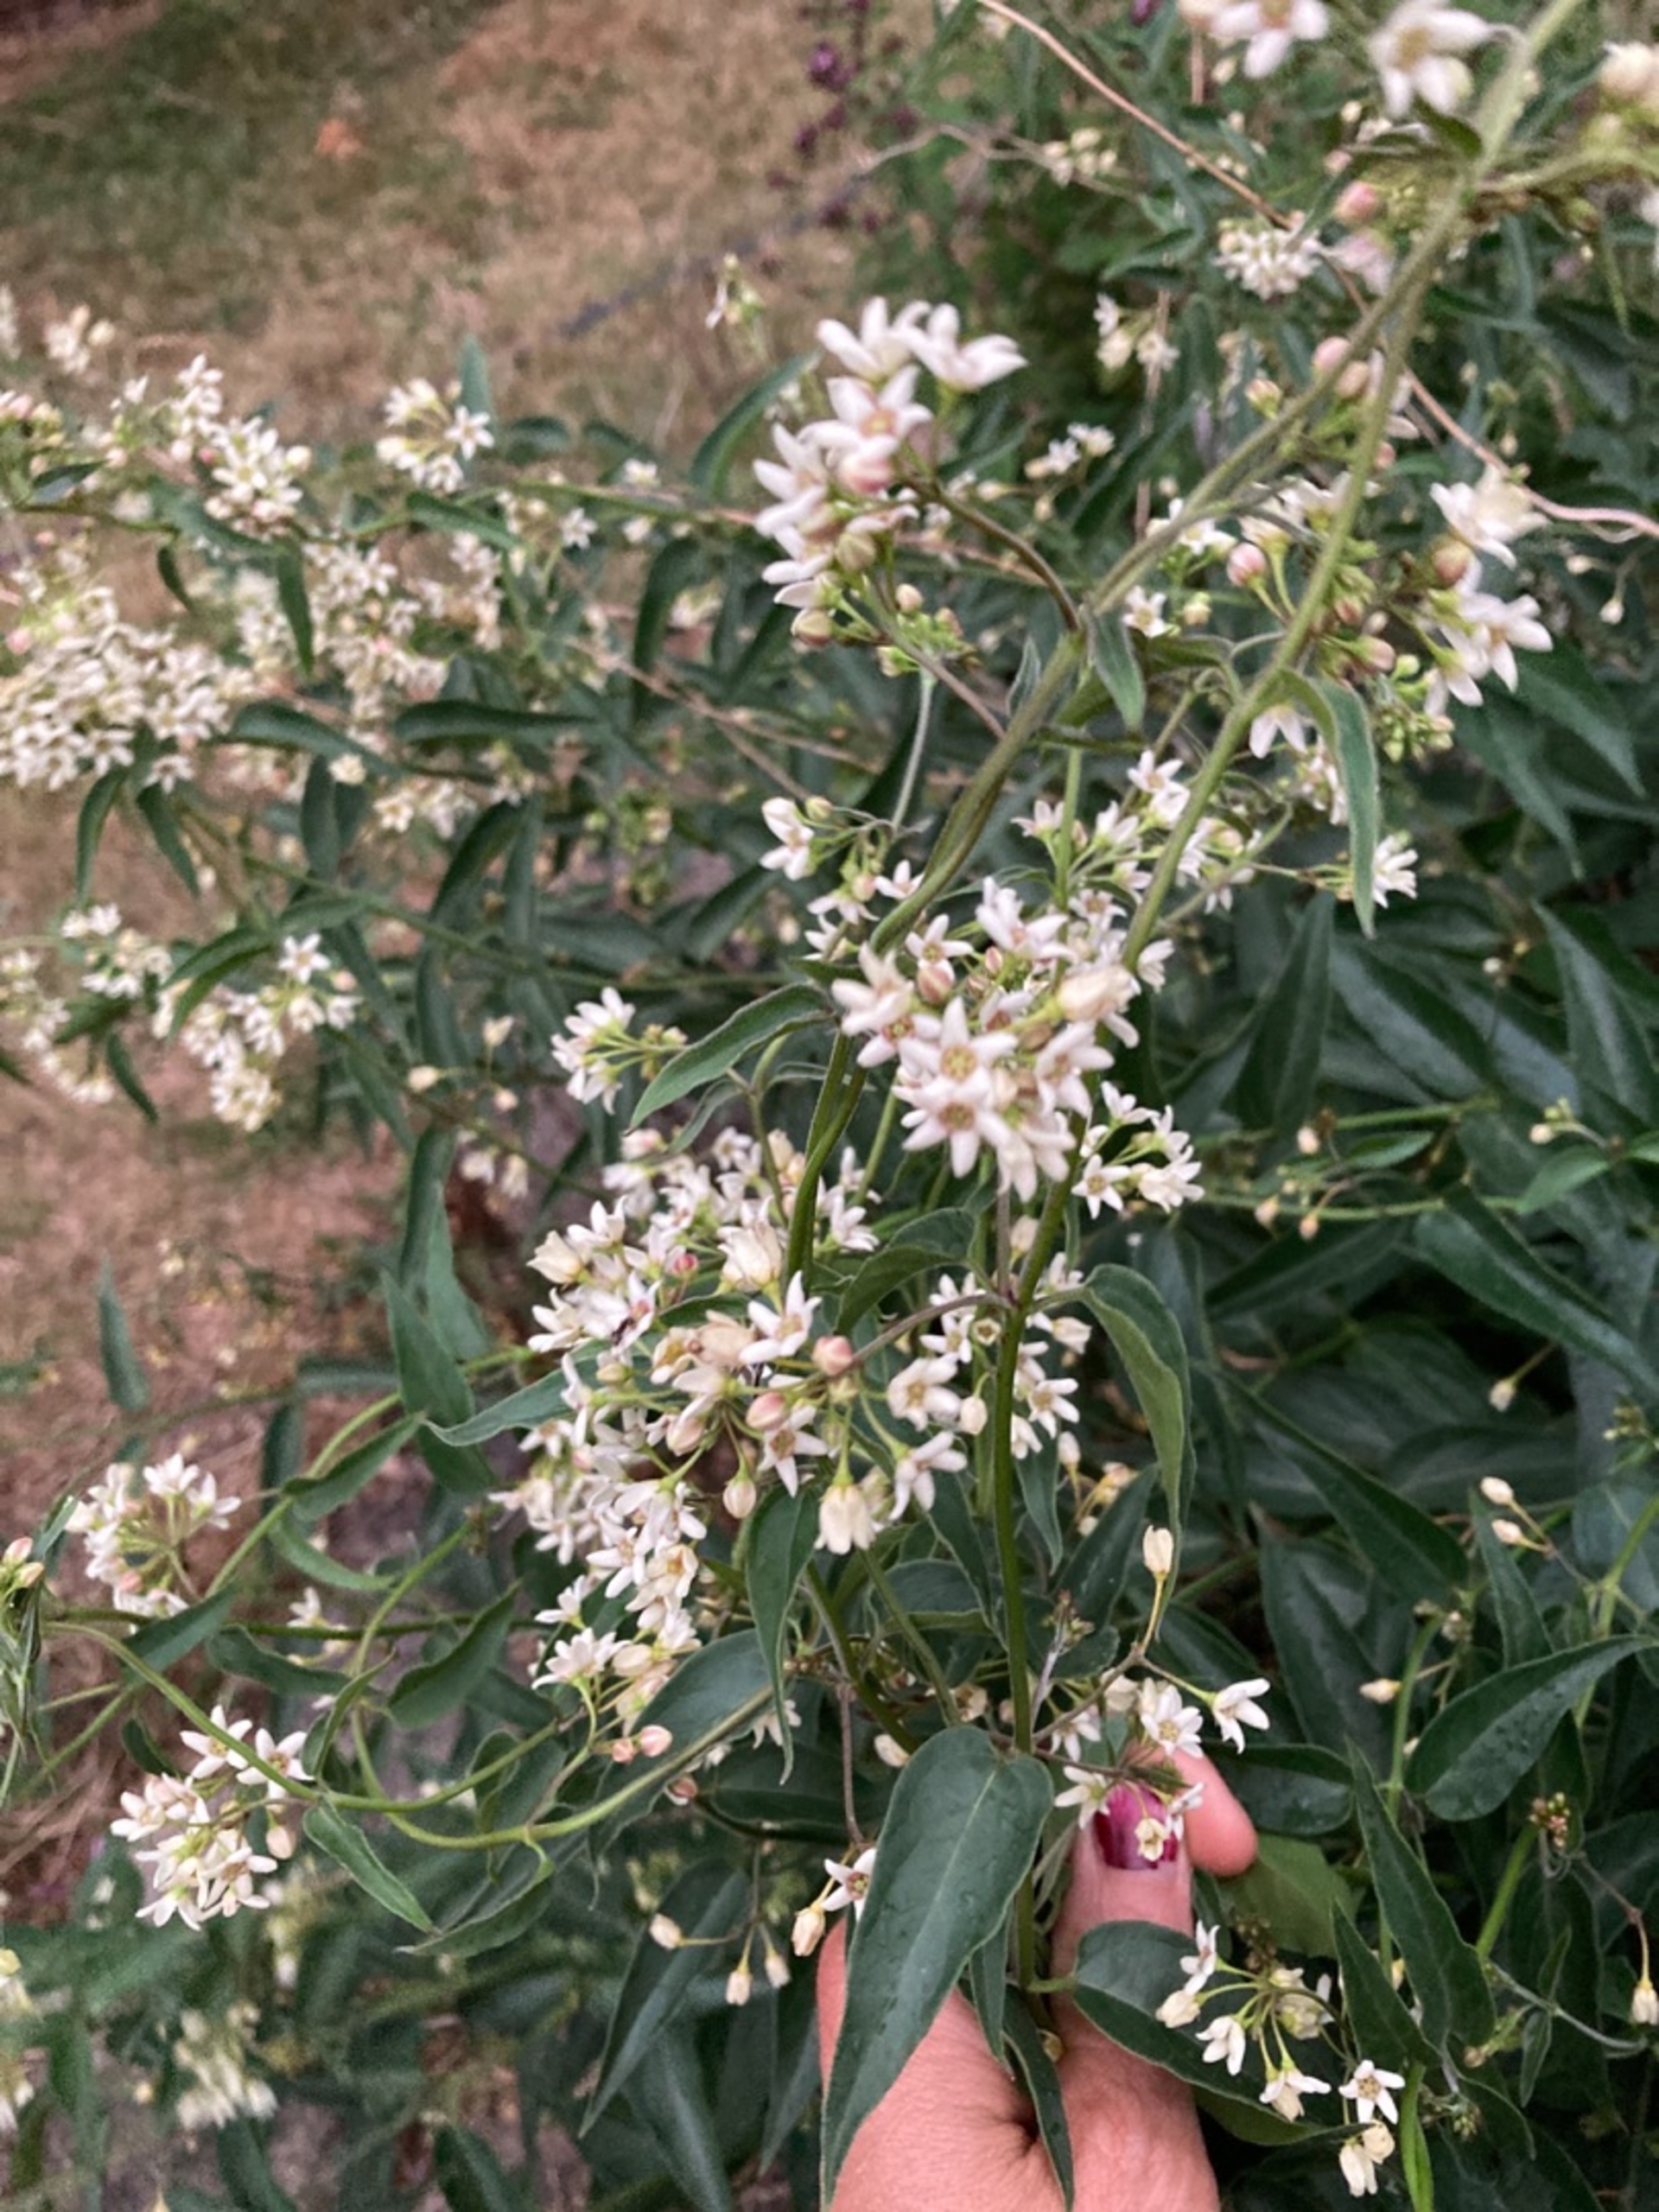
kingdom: Plantae
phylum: Tracheophyta
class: Magnoliopsida
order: Gentianales
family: Apocynaceae
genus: Vincetoxicum
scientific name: Vincetoxicum hirundinaria
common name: Svalerod
